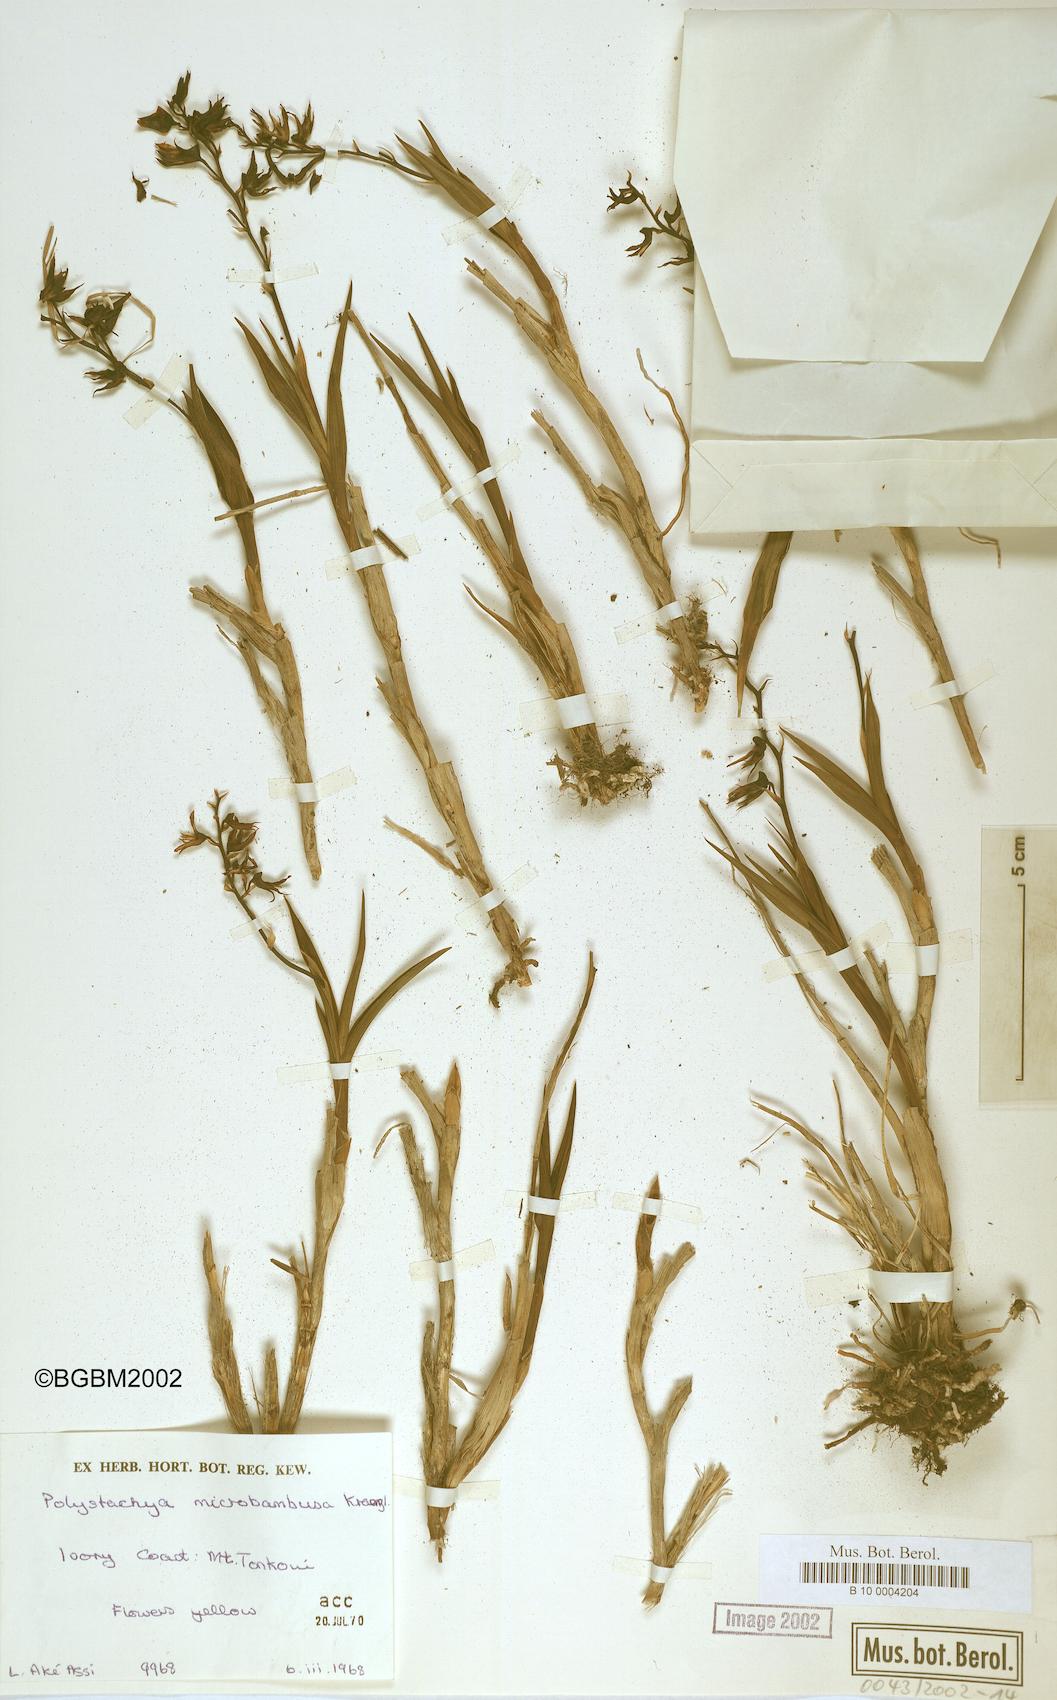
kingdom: Plantae
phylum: Tracheophyta
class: Liliopsida
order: Asparagales
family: Orchidaceae
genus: Polystachya
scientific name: Polystachya microbambusa
